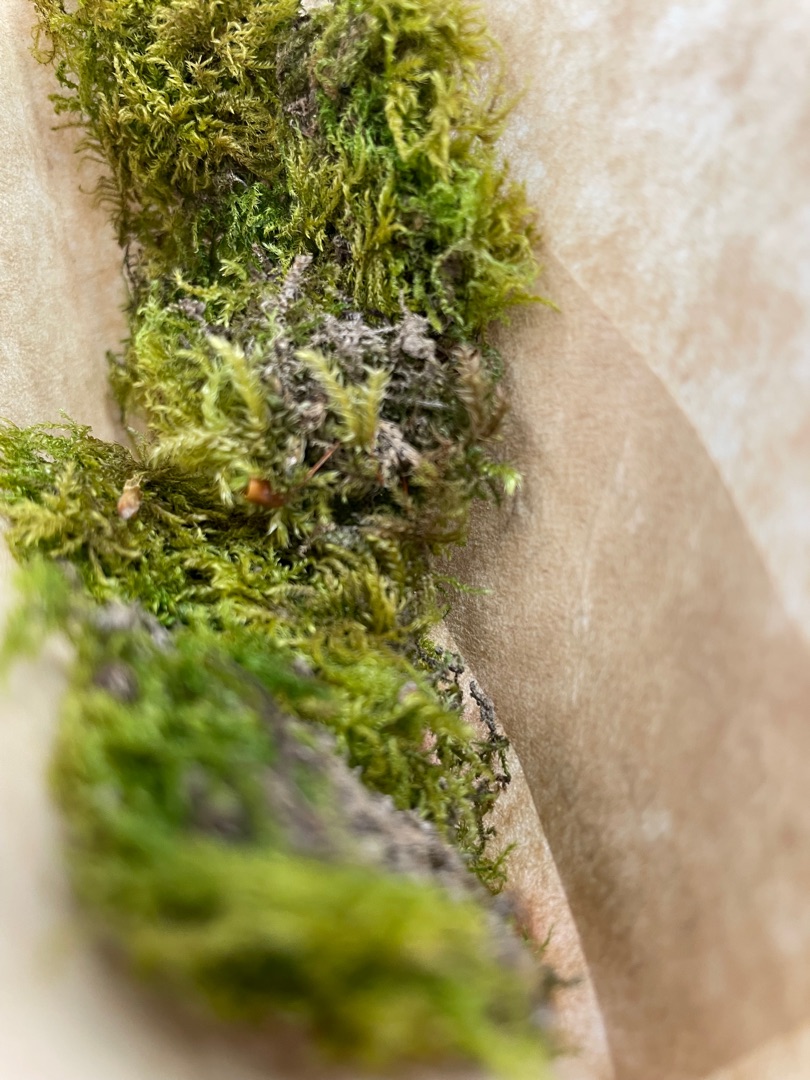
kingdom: Plantae
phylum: Bryophyta
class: Bryopsida
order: Hypnales
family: Brachytheciaceae
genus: Kindbergia
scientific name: Kindbergia praelonga
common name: Forskelligbladet vortetand
